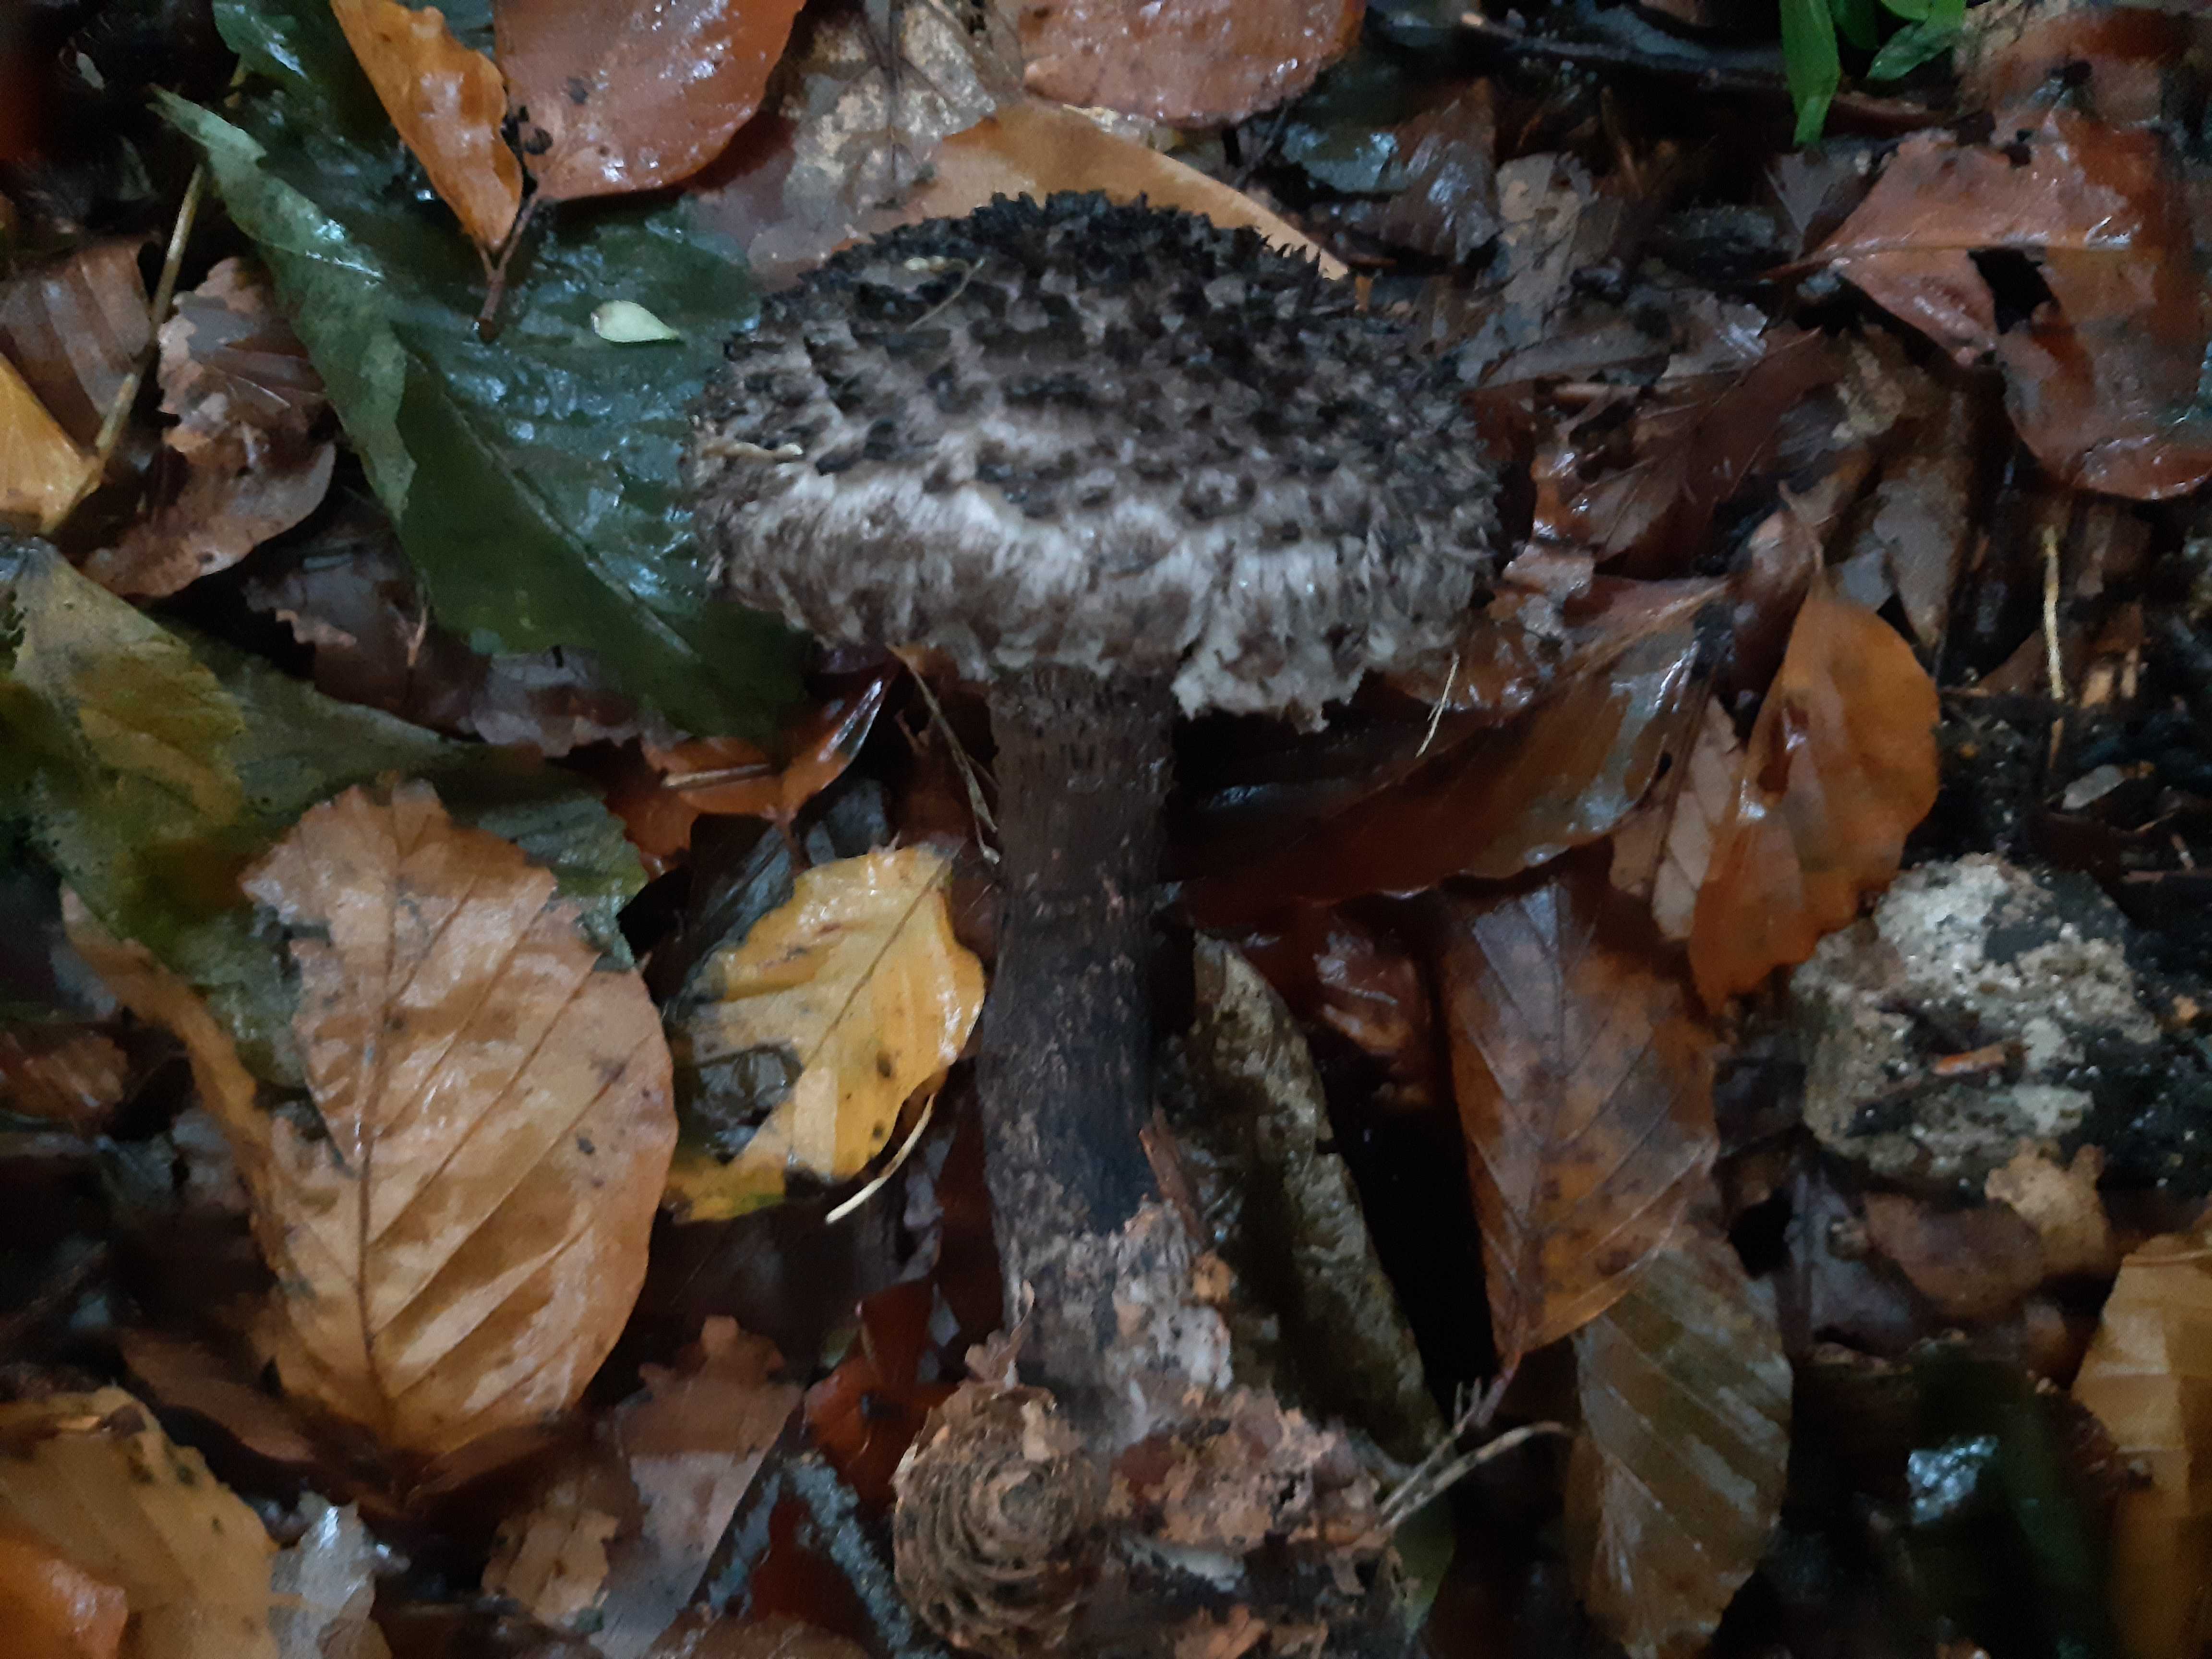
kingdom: Fungi
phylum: Basidiomycota
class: Agaricomycetes
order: Boletales
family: Boletaceae
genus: Strobilomyces
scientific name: Strobilomyces strobilaceus
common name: koglerørhat
